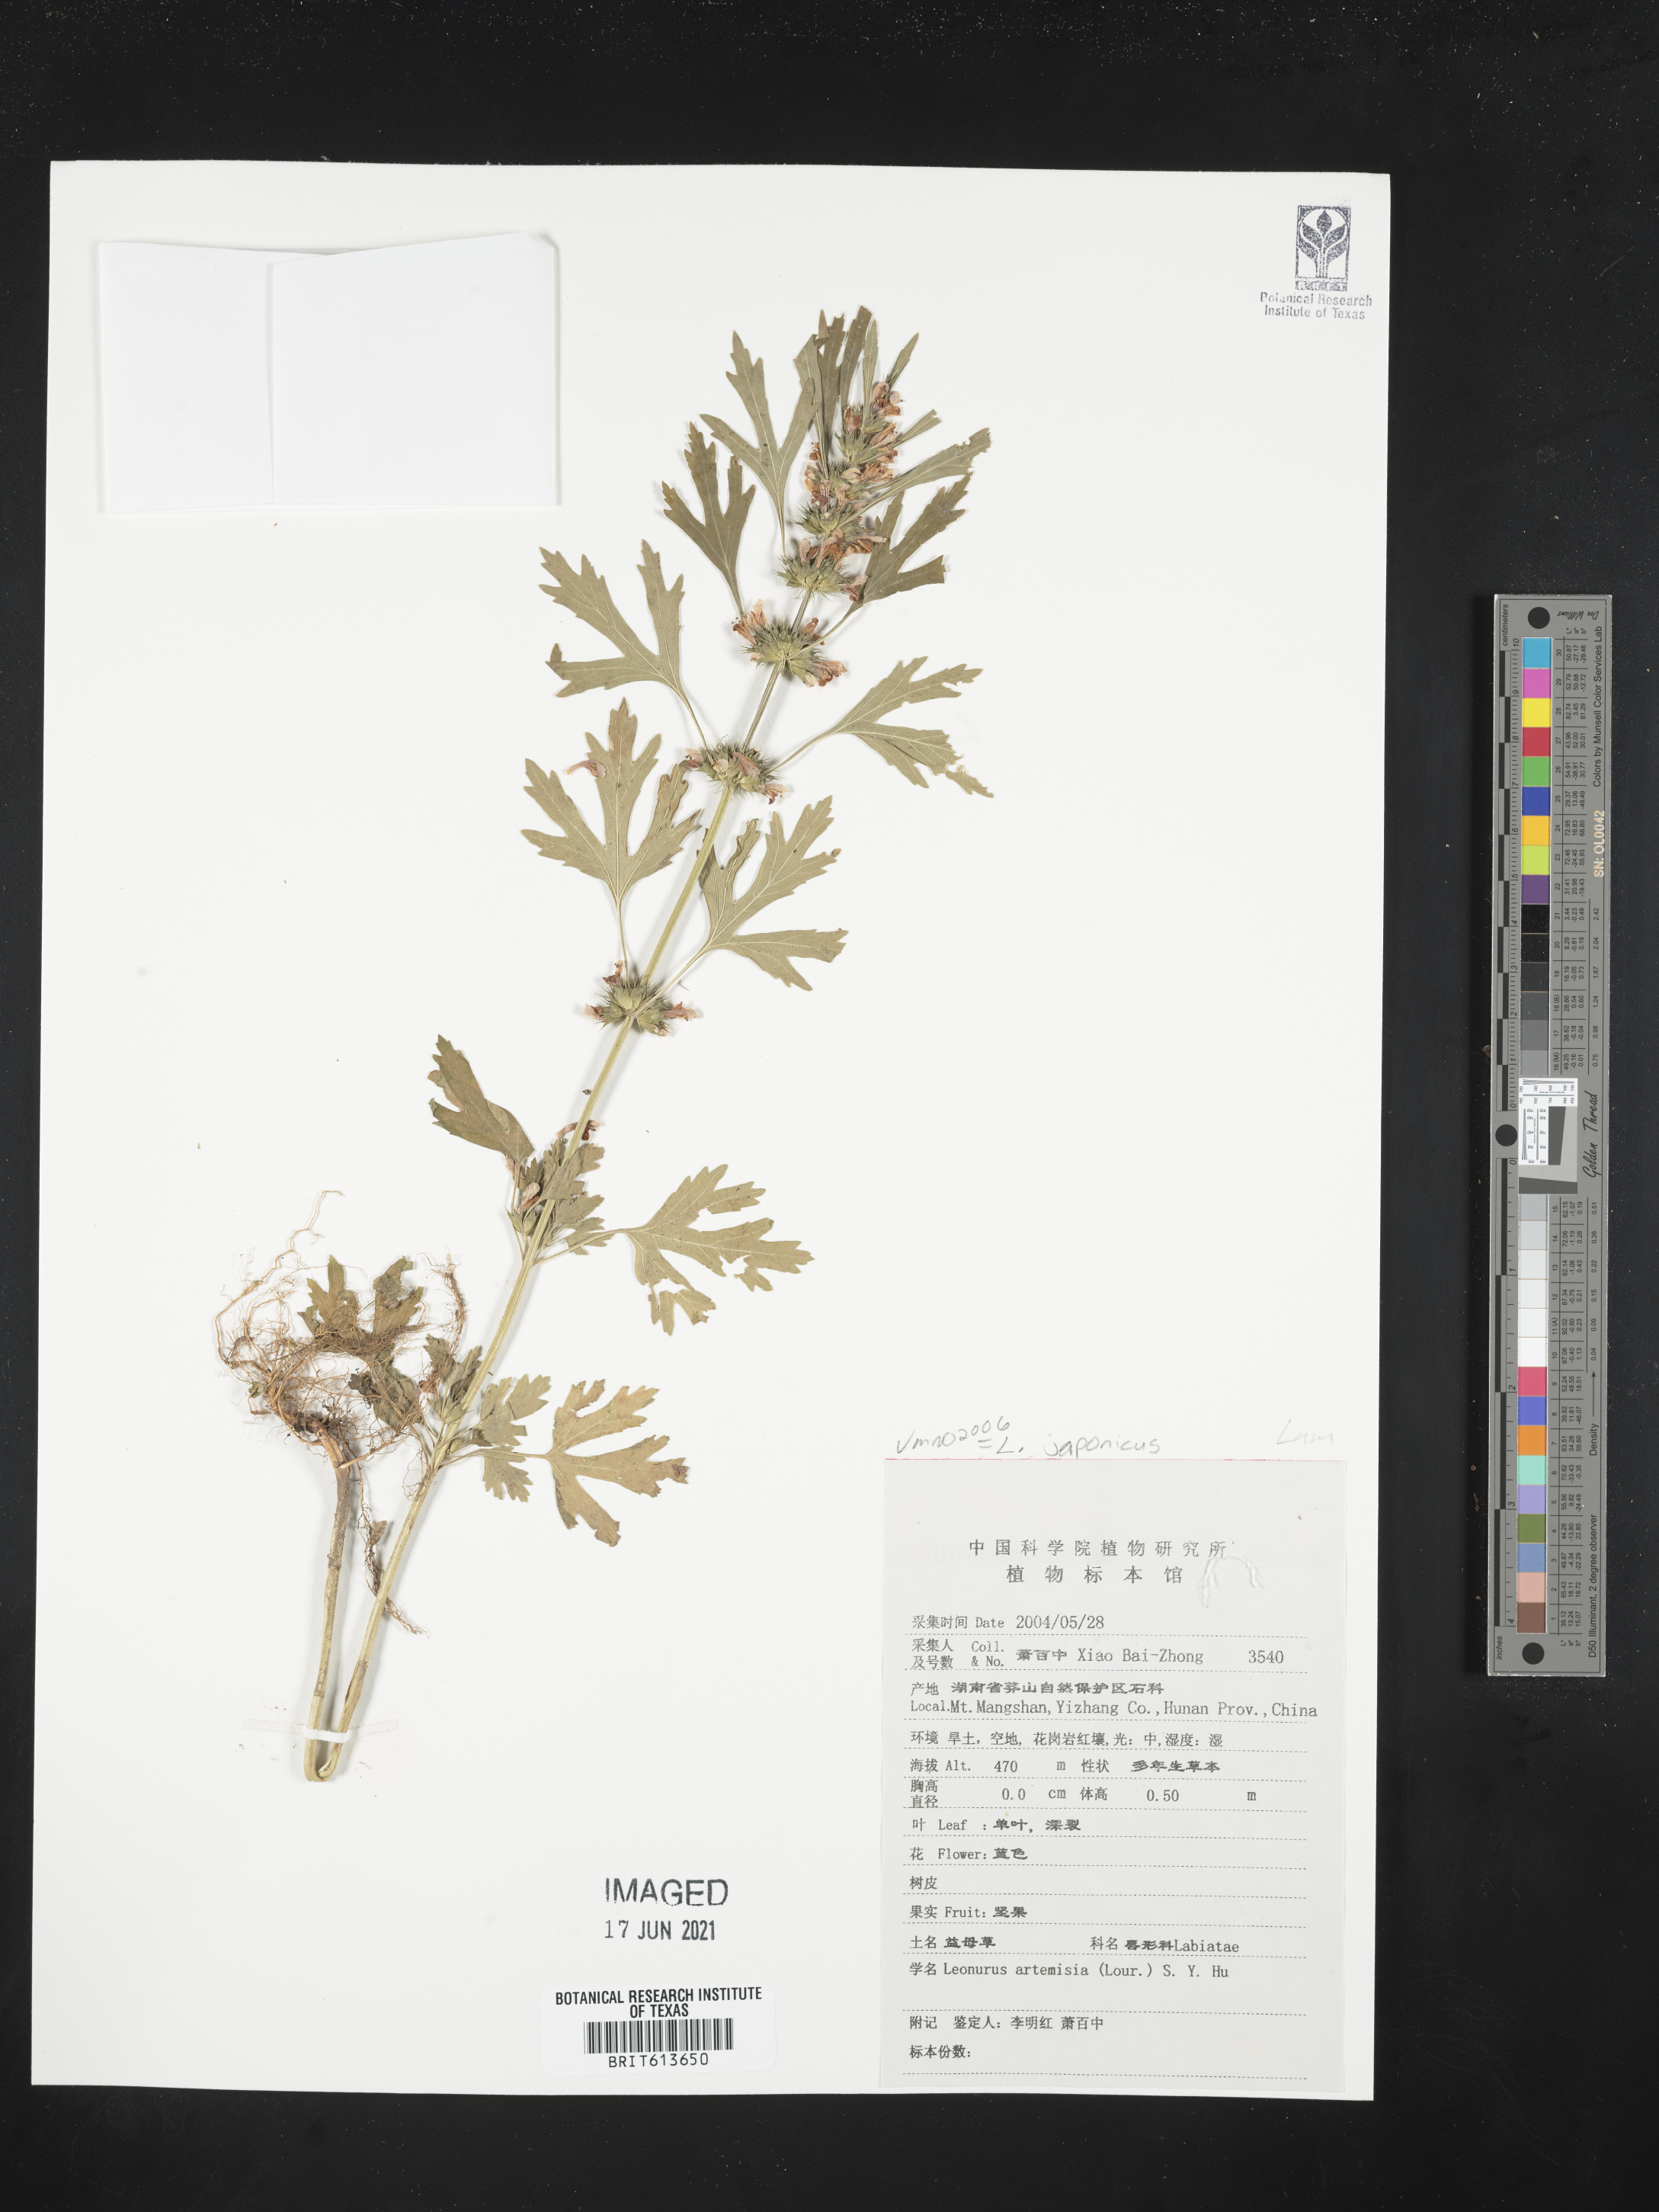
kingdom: Plantae
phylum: Tracheophyta
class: Magnoliopsida
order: Lamiales
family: Lamiaceae
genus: Leonurus
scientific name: Leonurus japonicus
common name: Honeyweed
